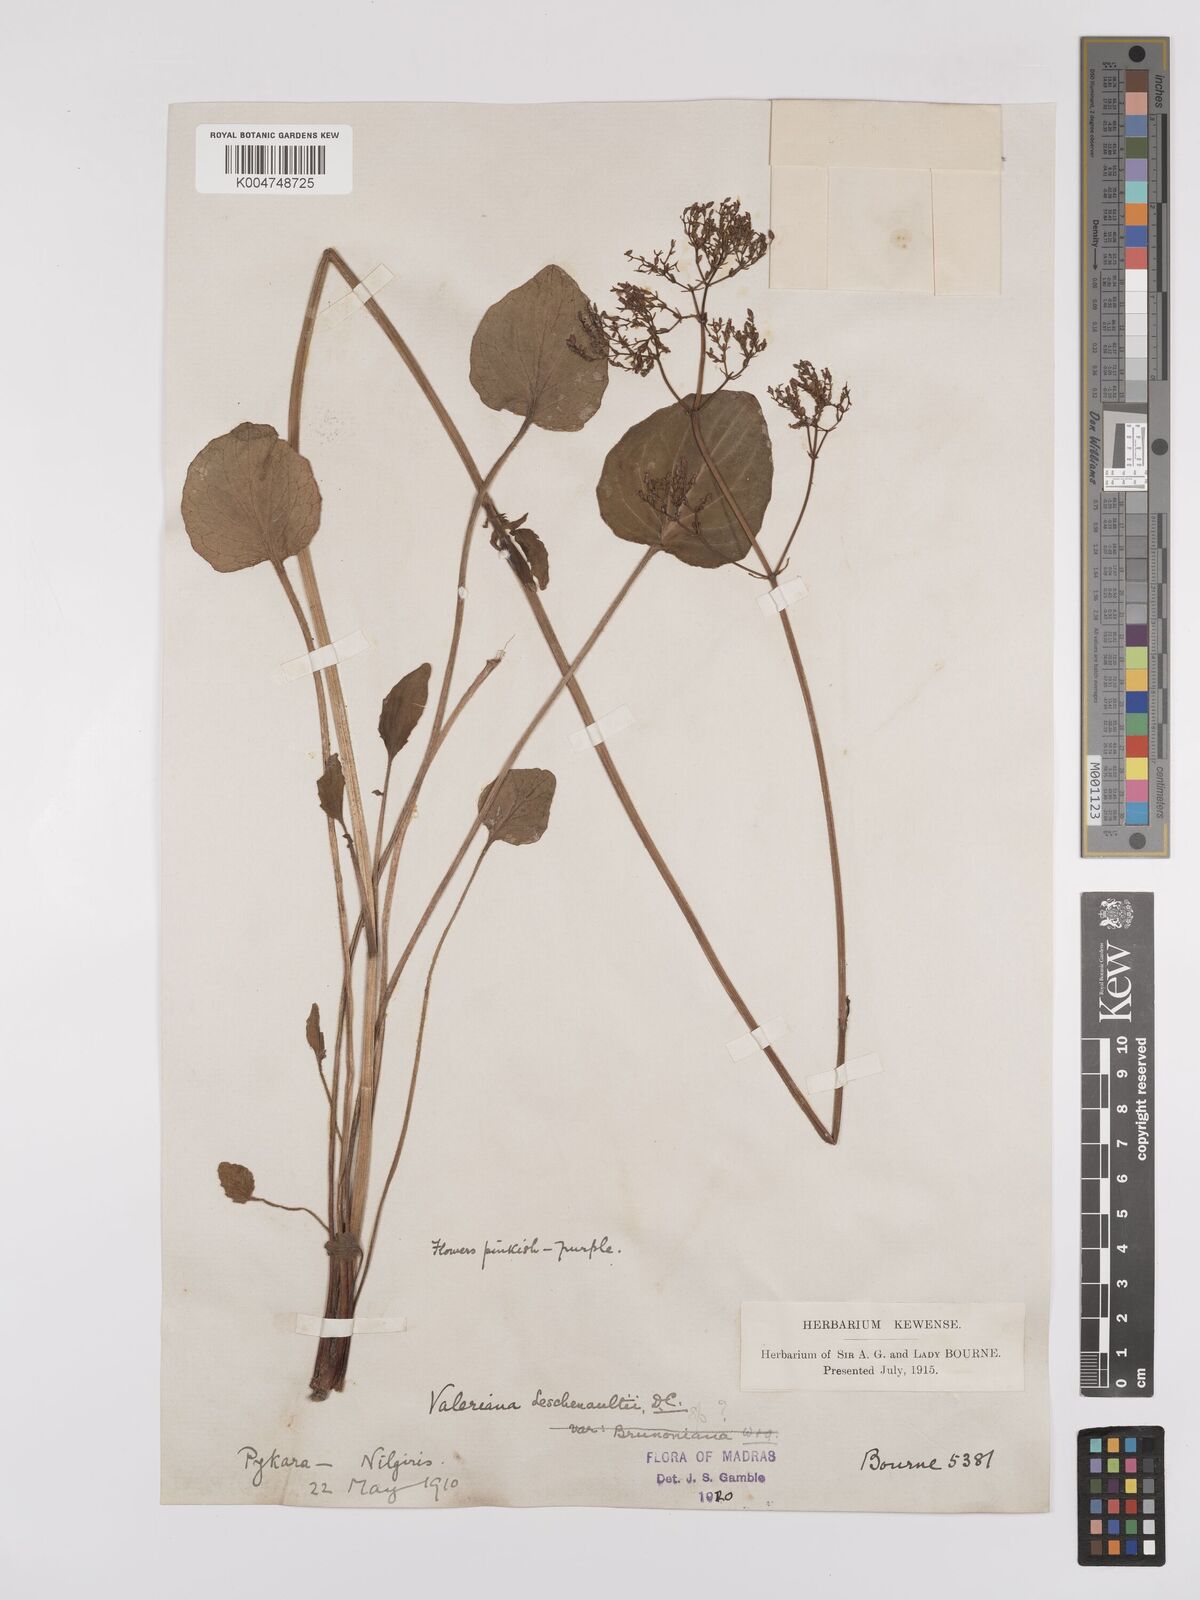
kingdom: Plantae
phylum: Tracheophyta
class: Magnoliopsida
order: Dipsacales
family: Caprifoliaceae
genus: Valeriana
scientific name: Valeriana leschenaultii
